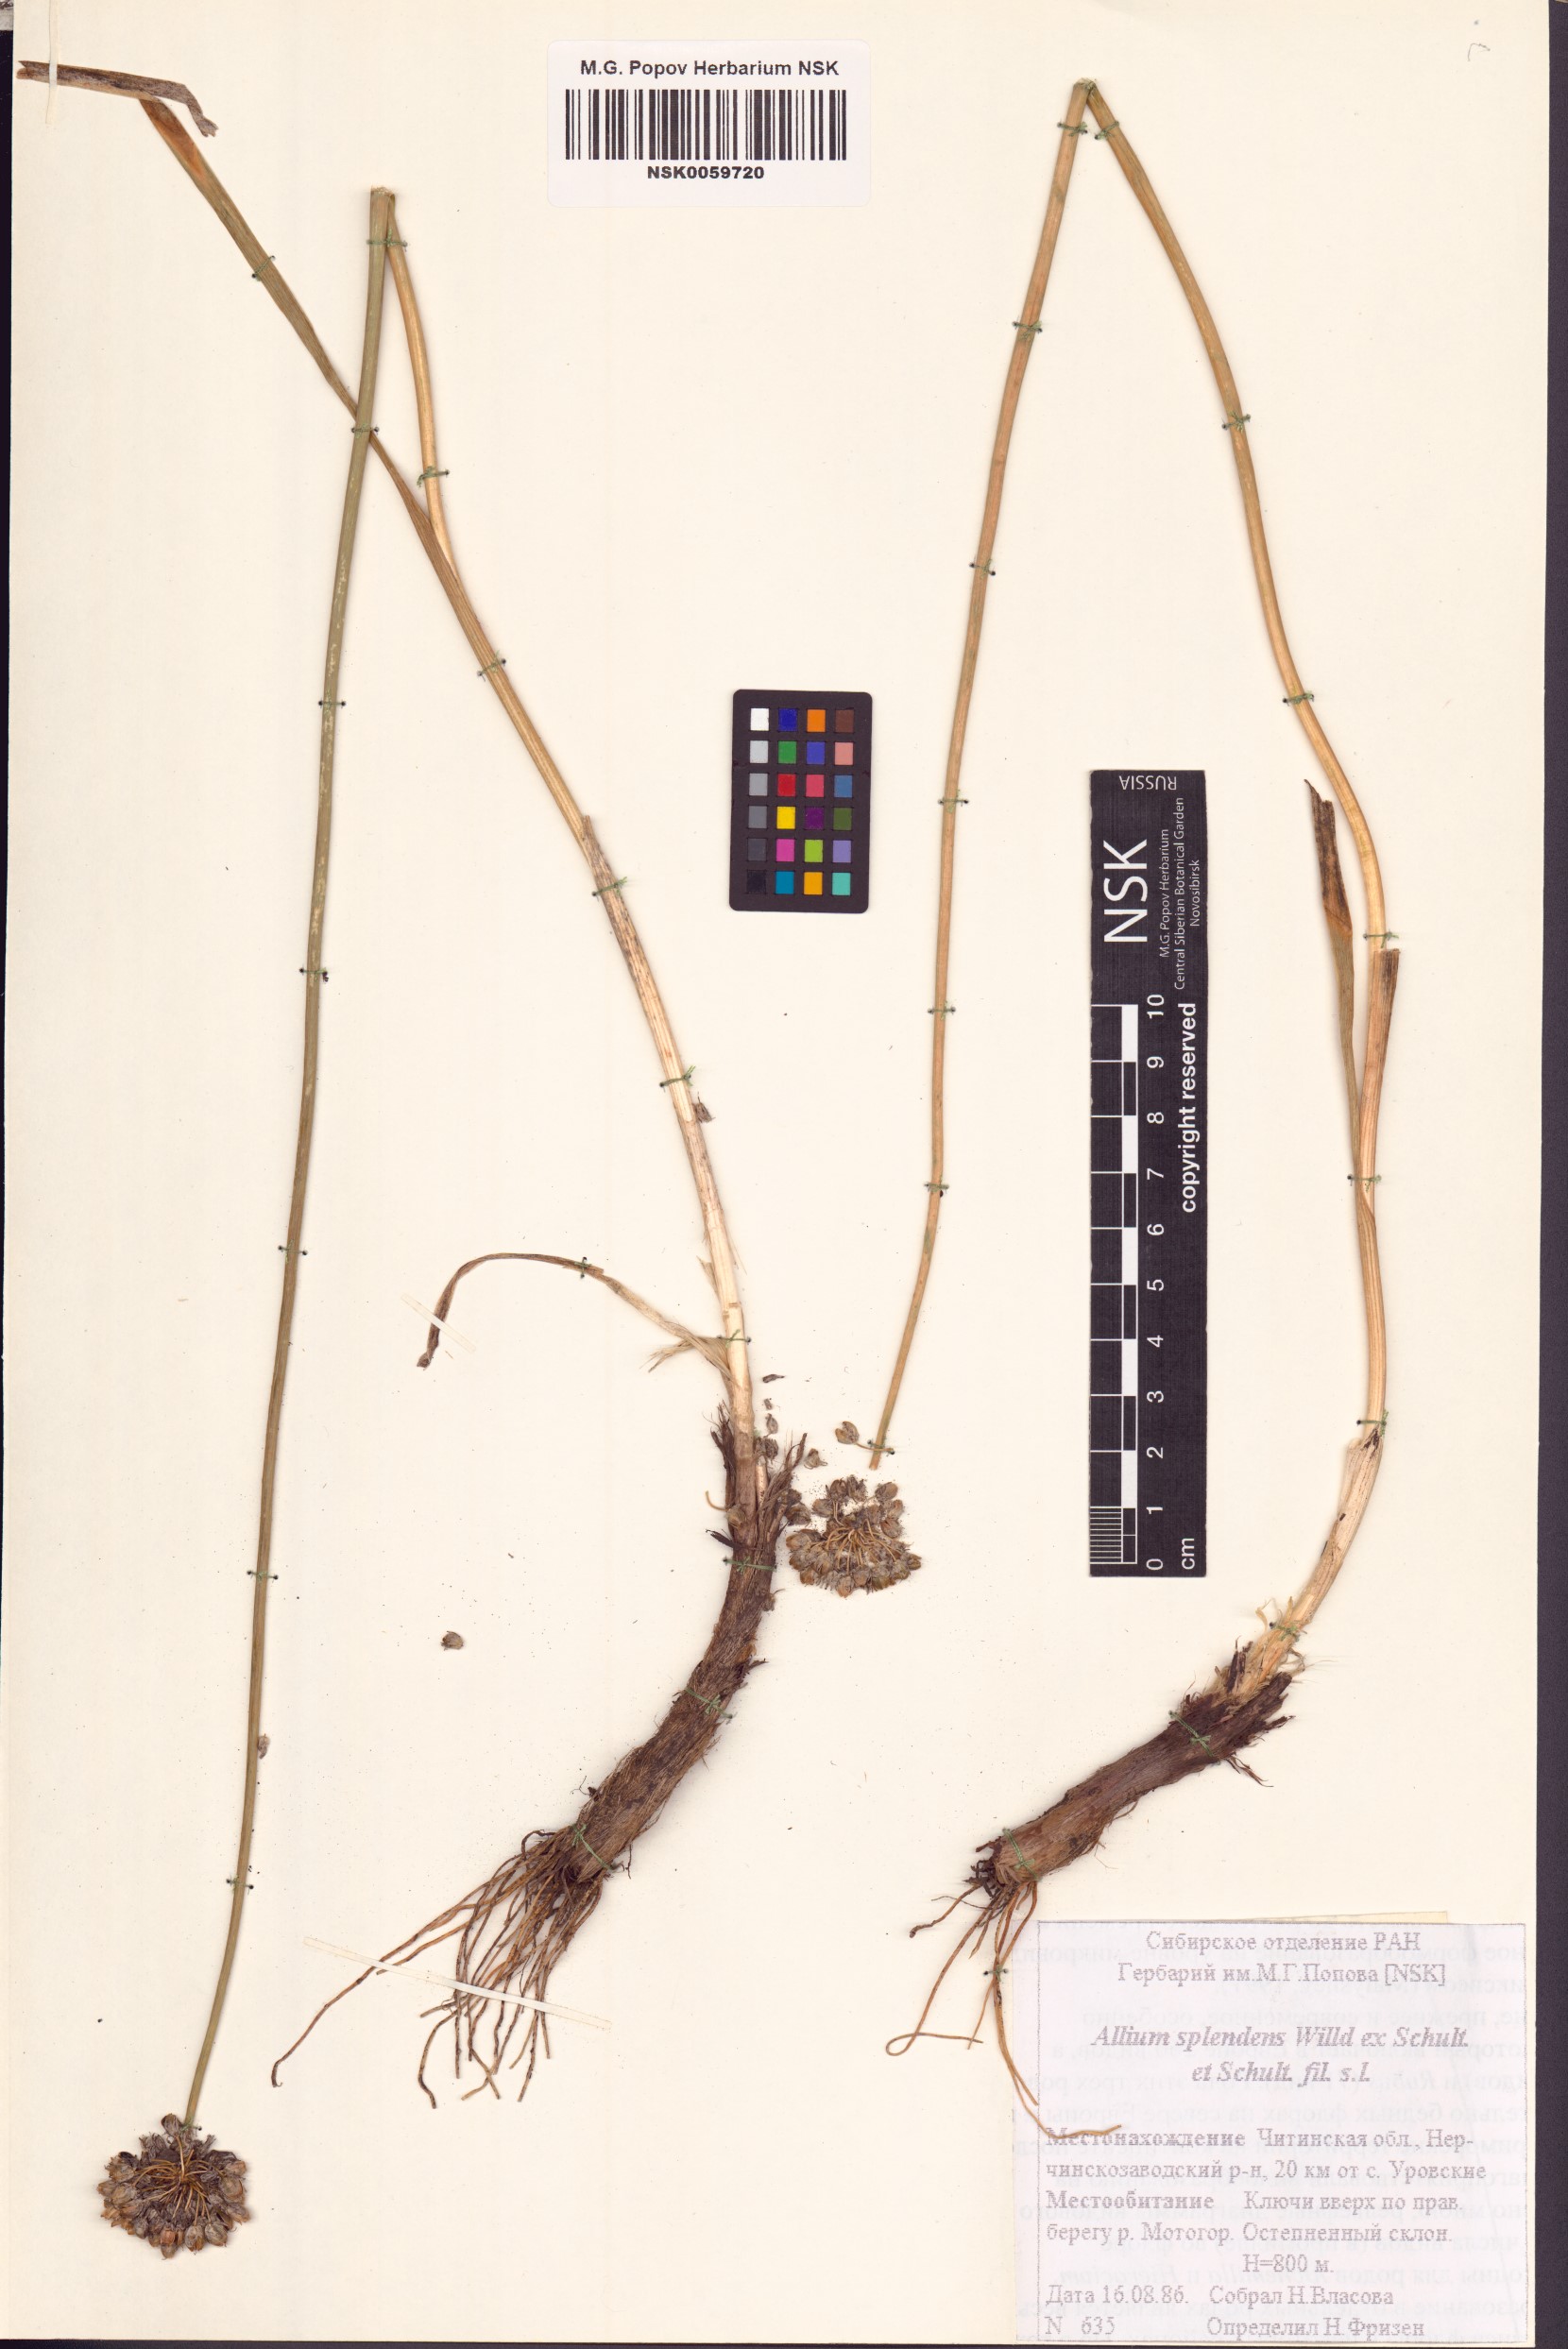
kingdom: Plantae
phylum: Tracheophyta
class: Liliopsida
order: Asparagales
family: Amaryllidaceae
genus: Allium
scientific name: Allium splendens
